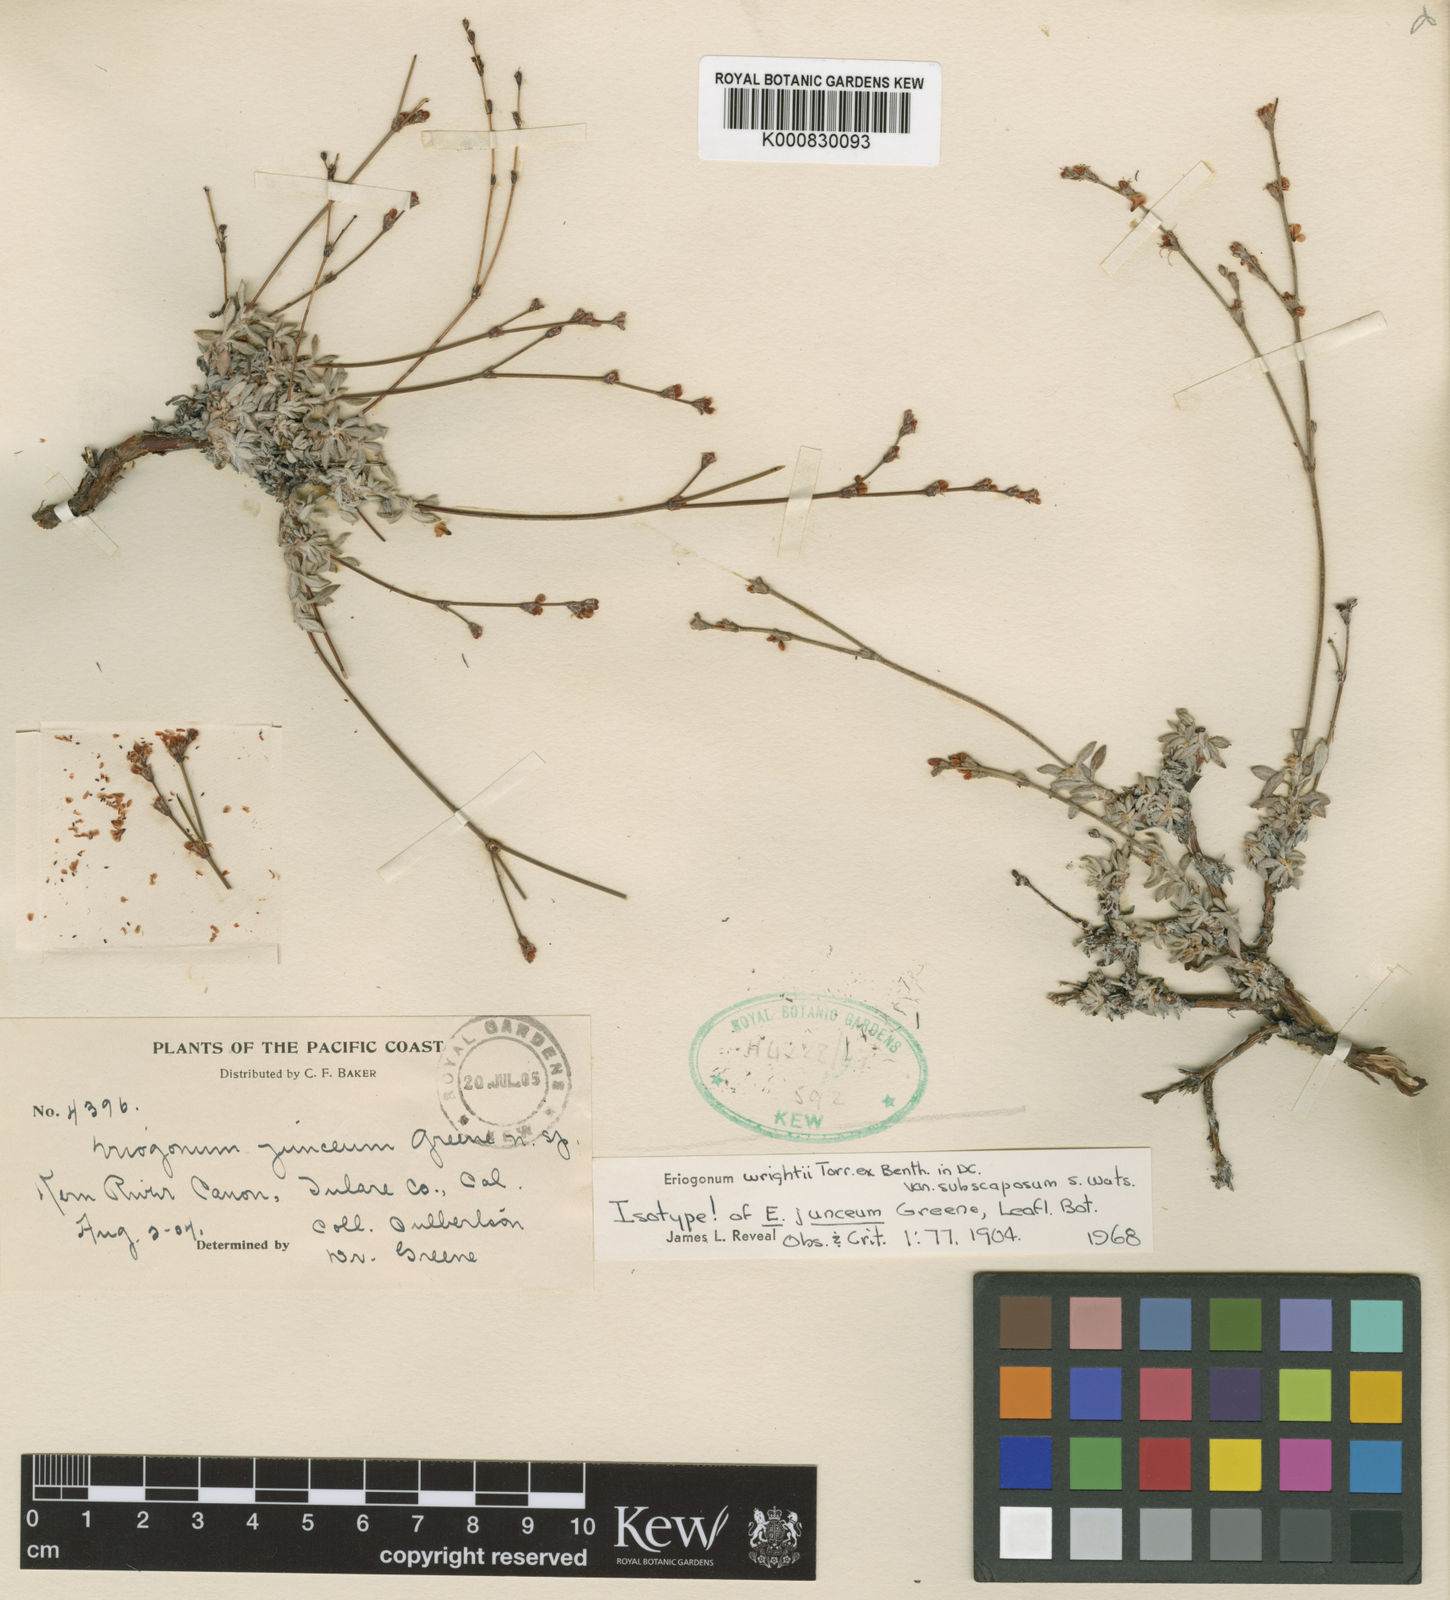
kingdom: Plantae
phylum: Tracheophyta
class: Magnoliopsida
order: Caryophyllales
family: Polygonaceae
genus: Eriogonum
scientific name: Eriogonum wrightii
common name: Bastard-sage
